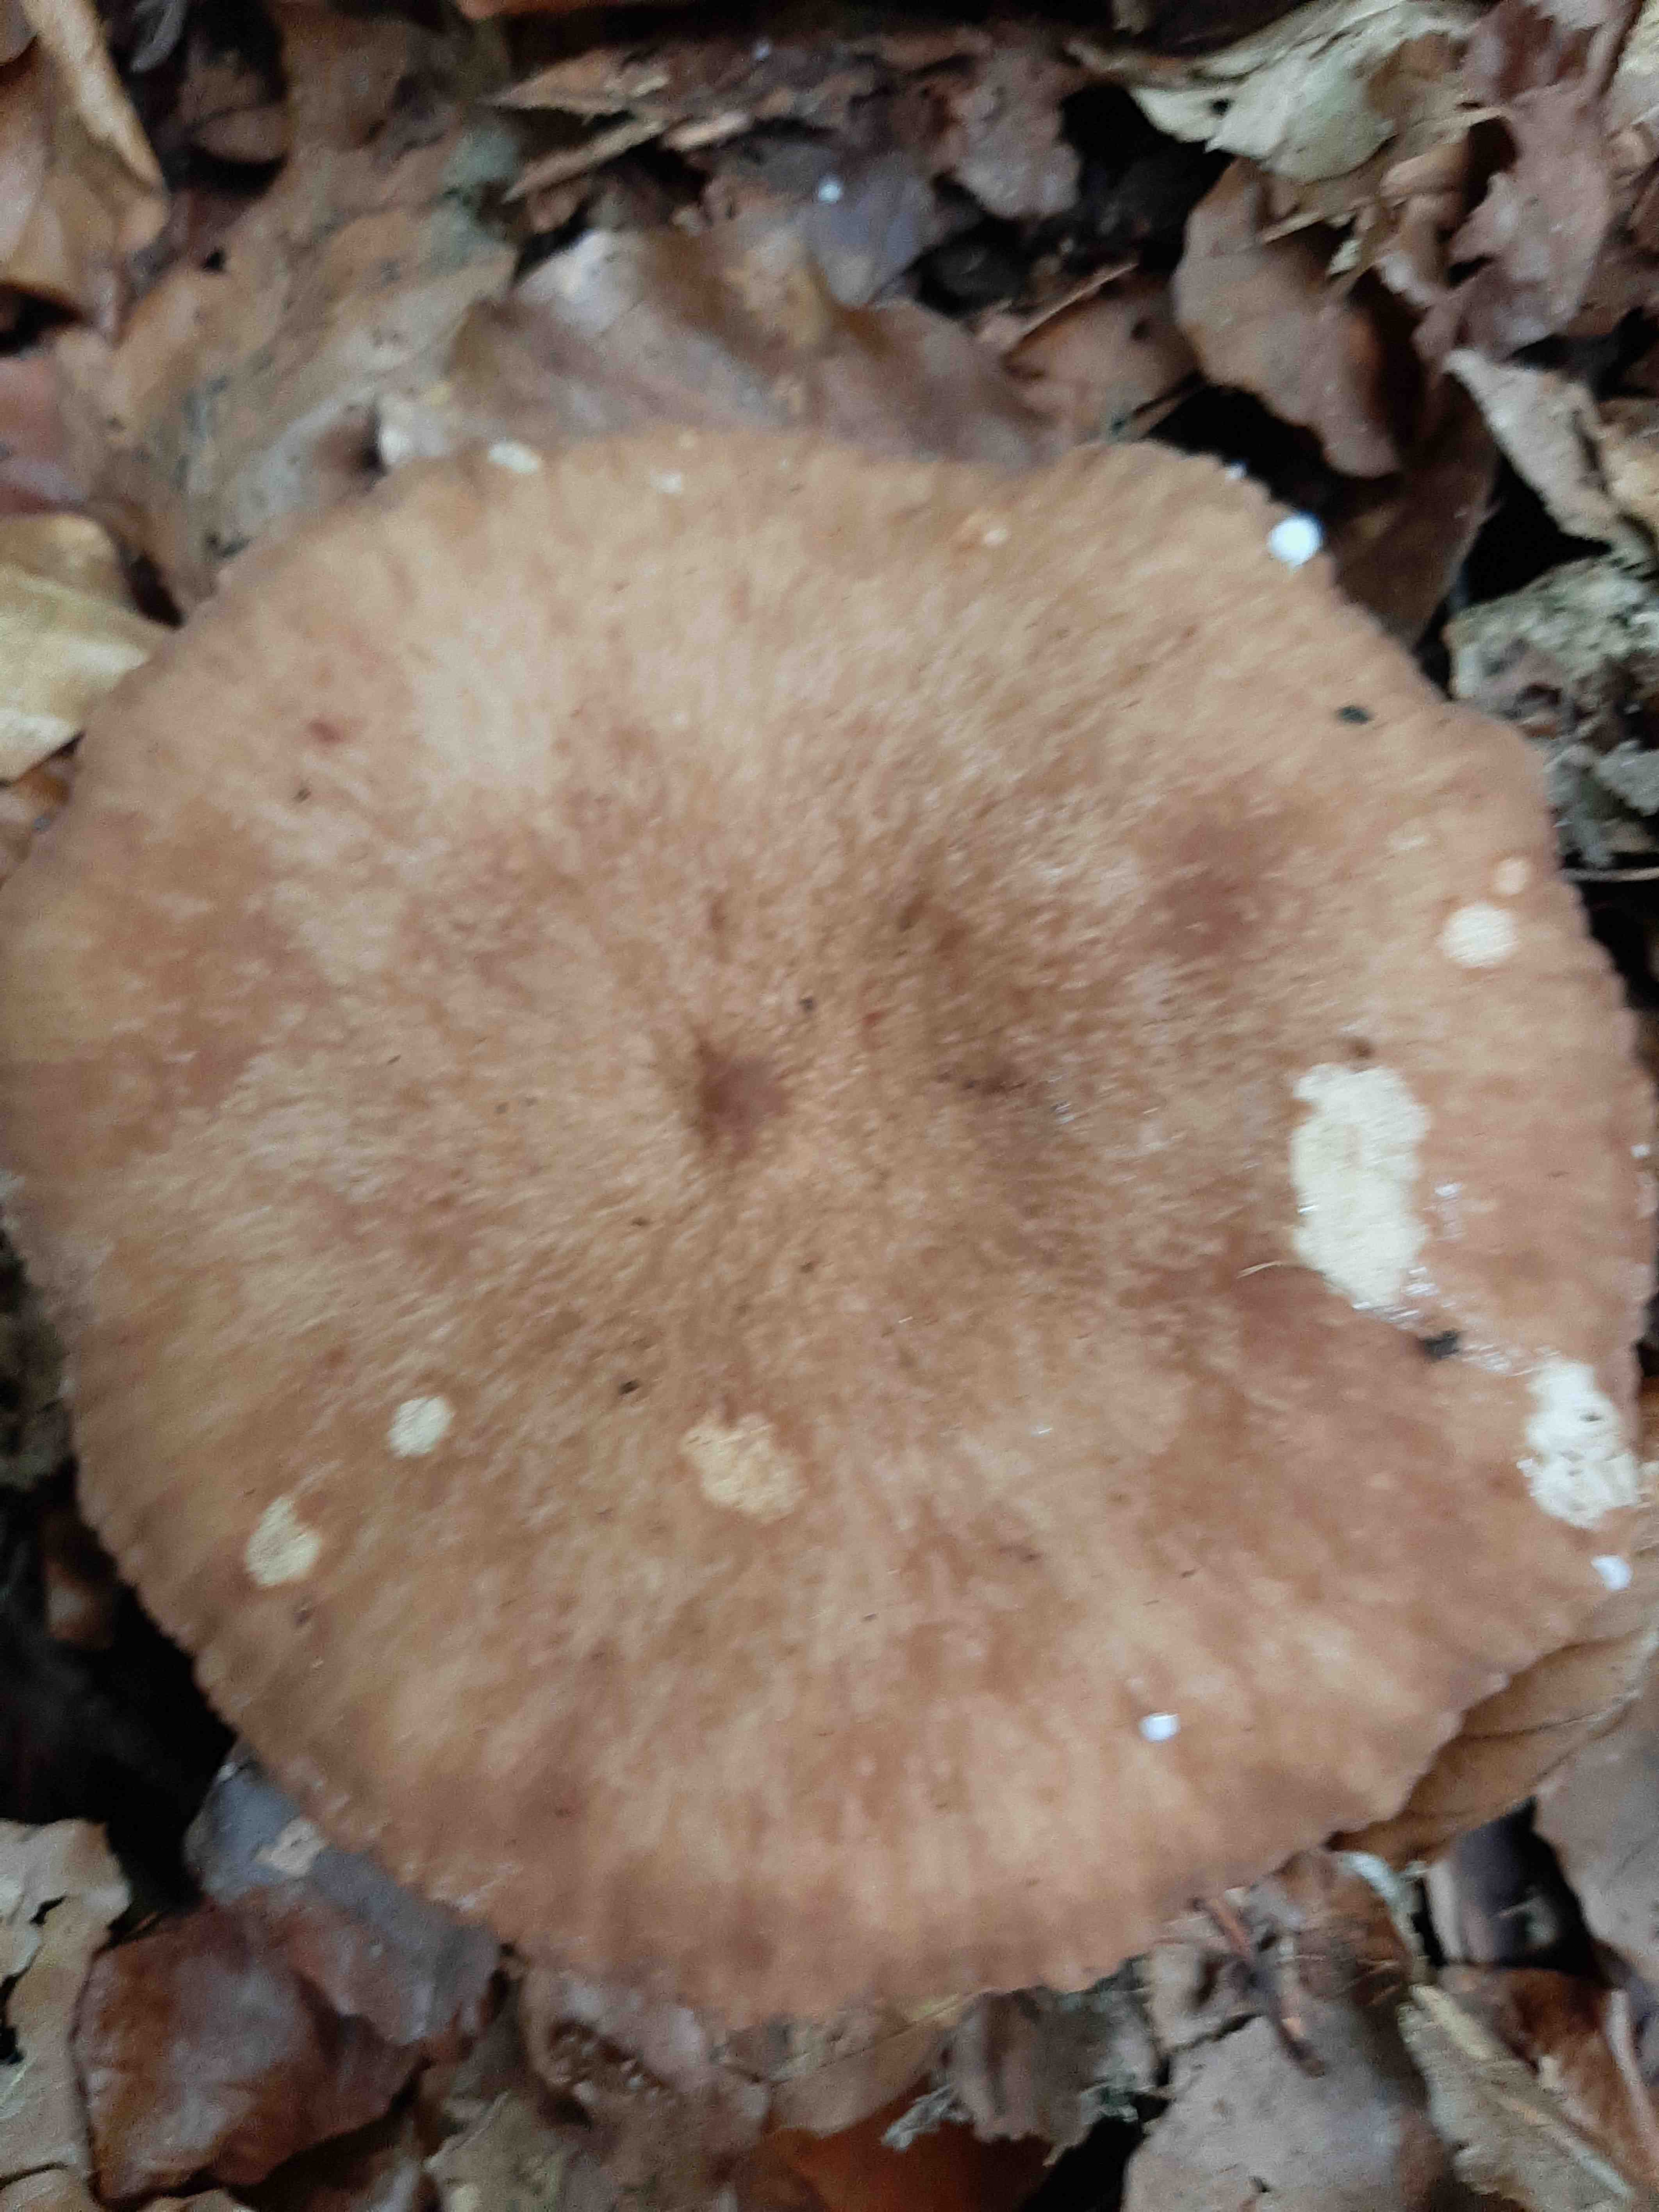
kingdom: Fungi
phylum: Basidiomycota
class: Agaricomycetes
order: Russulales
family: Russulaceae
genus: Lactarius
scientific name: Lactarius
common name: mælkehat
